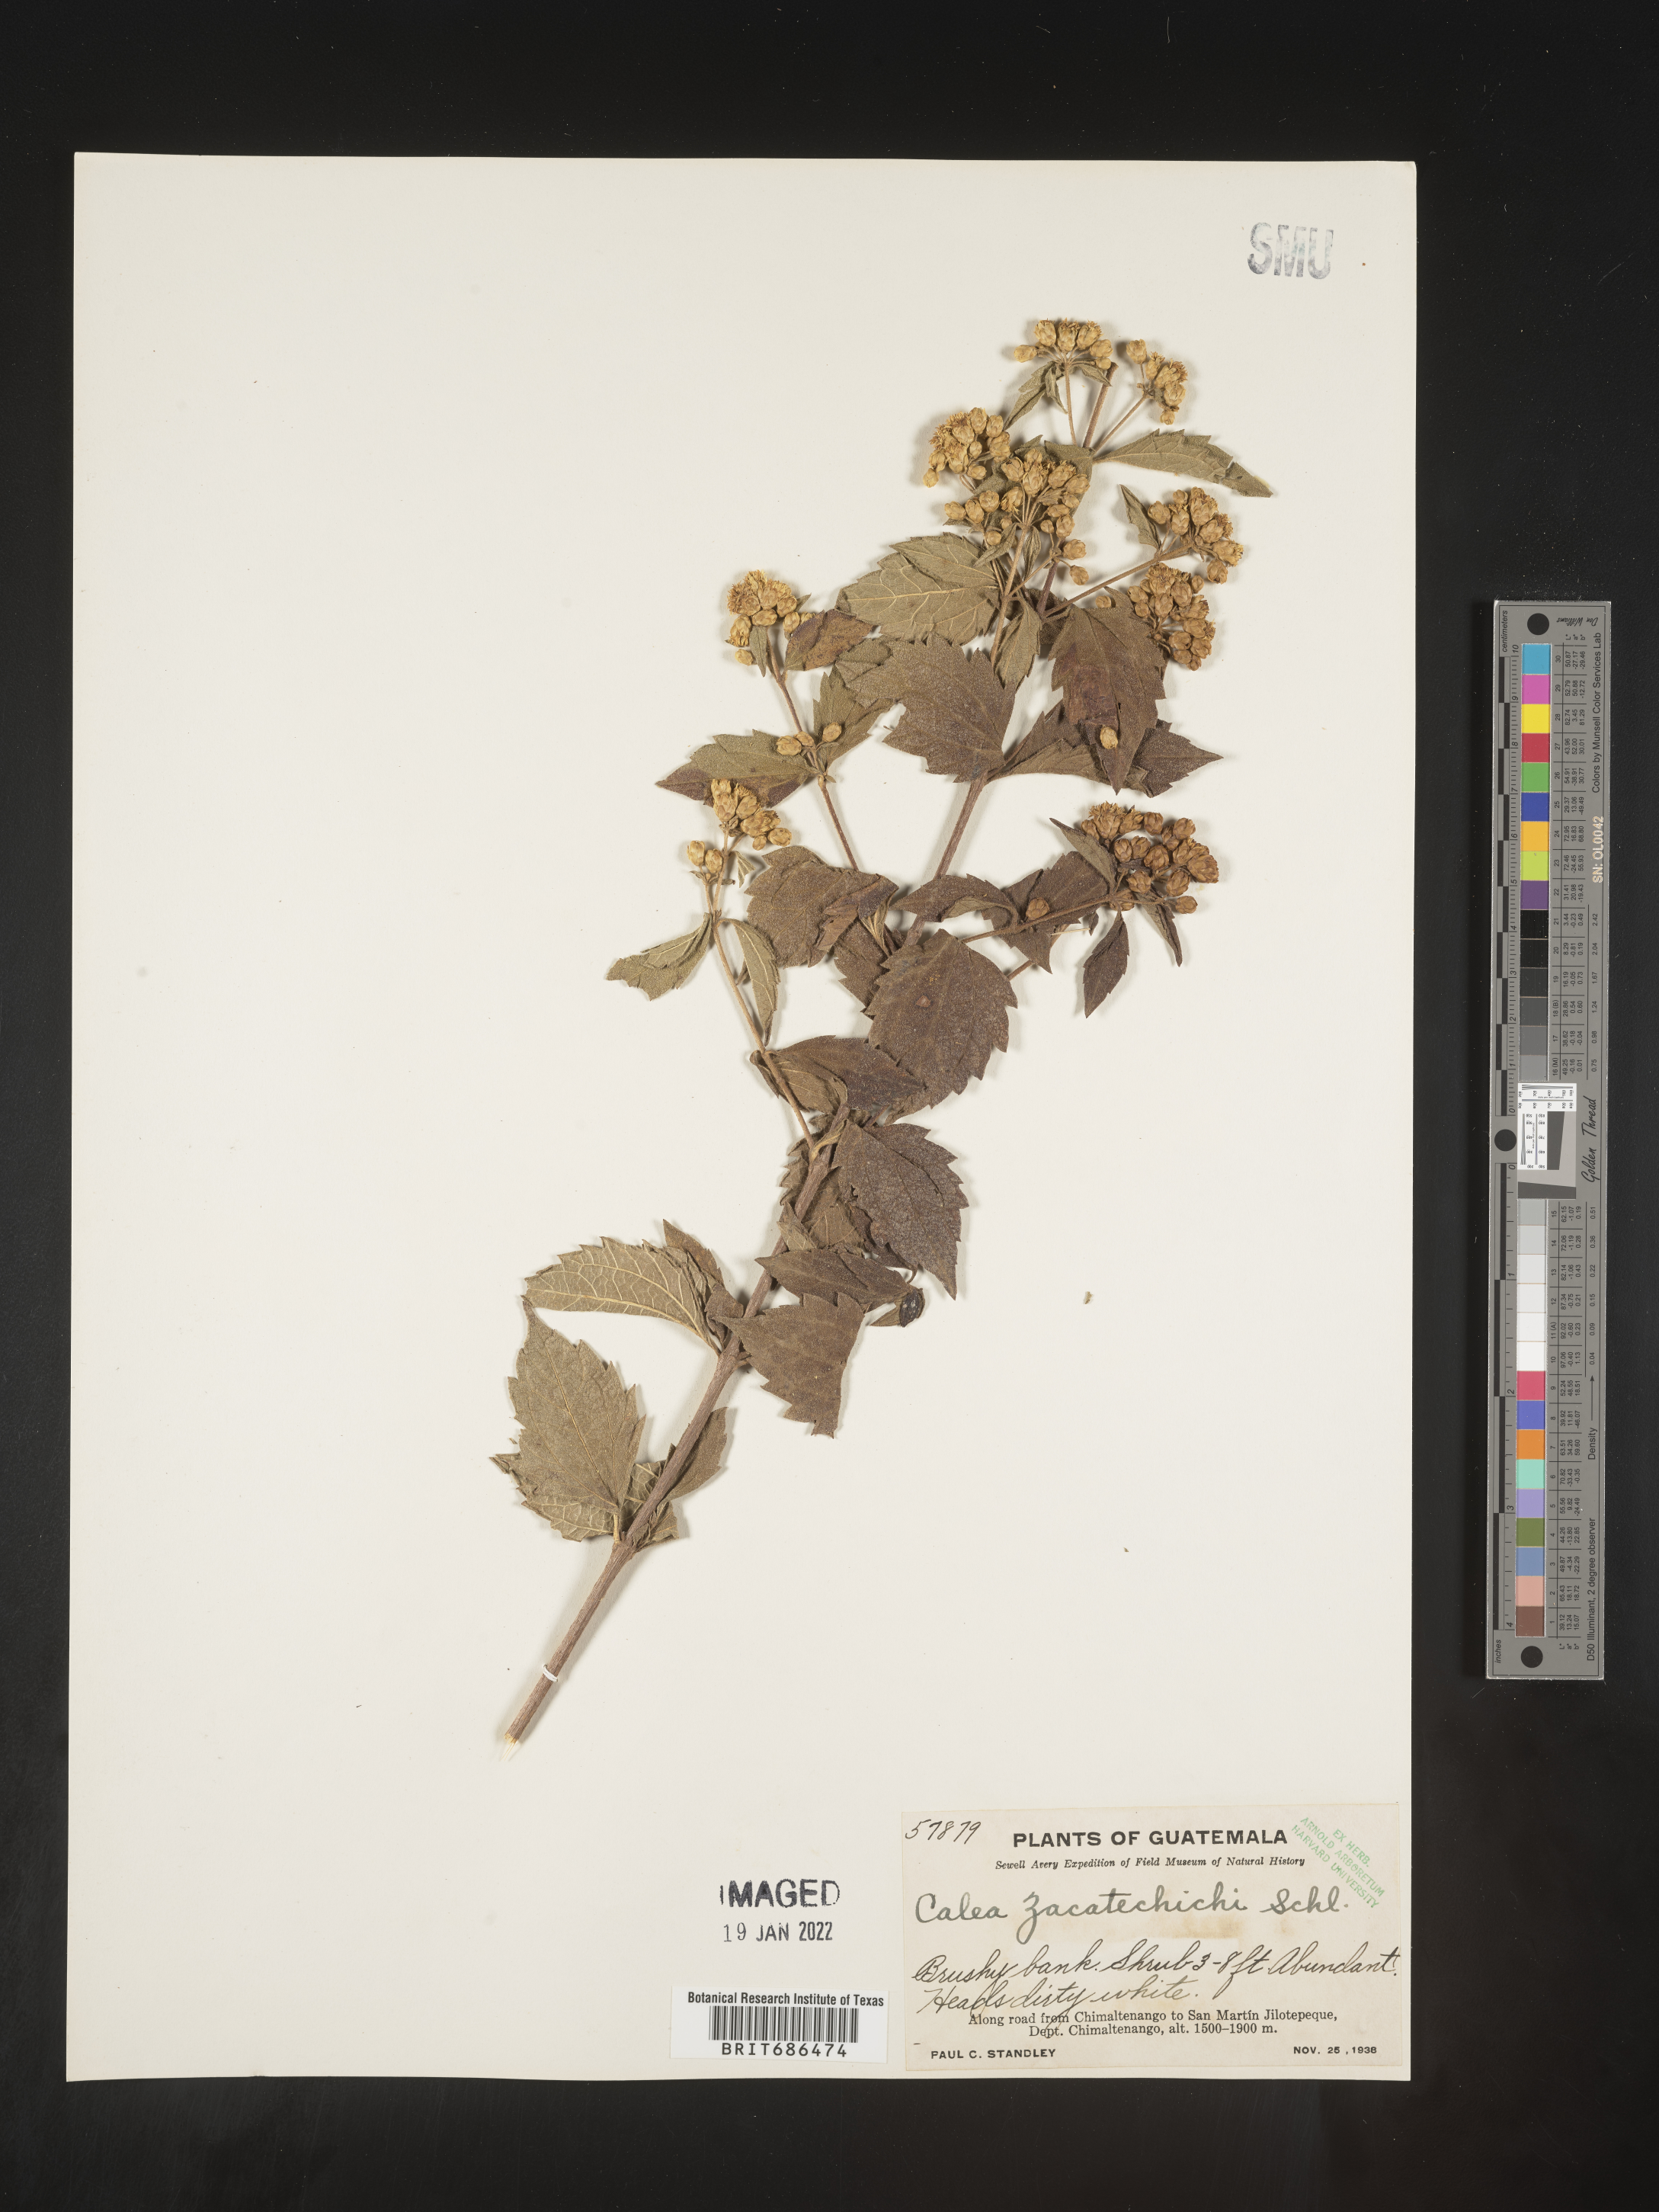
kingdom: Plantae
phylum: Tracheophyta
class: Magnoliopsida
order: Asterales
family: Asteraceae
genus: Calea
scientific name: Calea trichotoma
